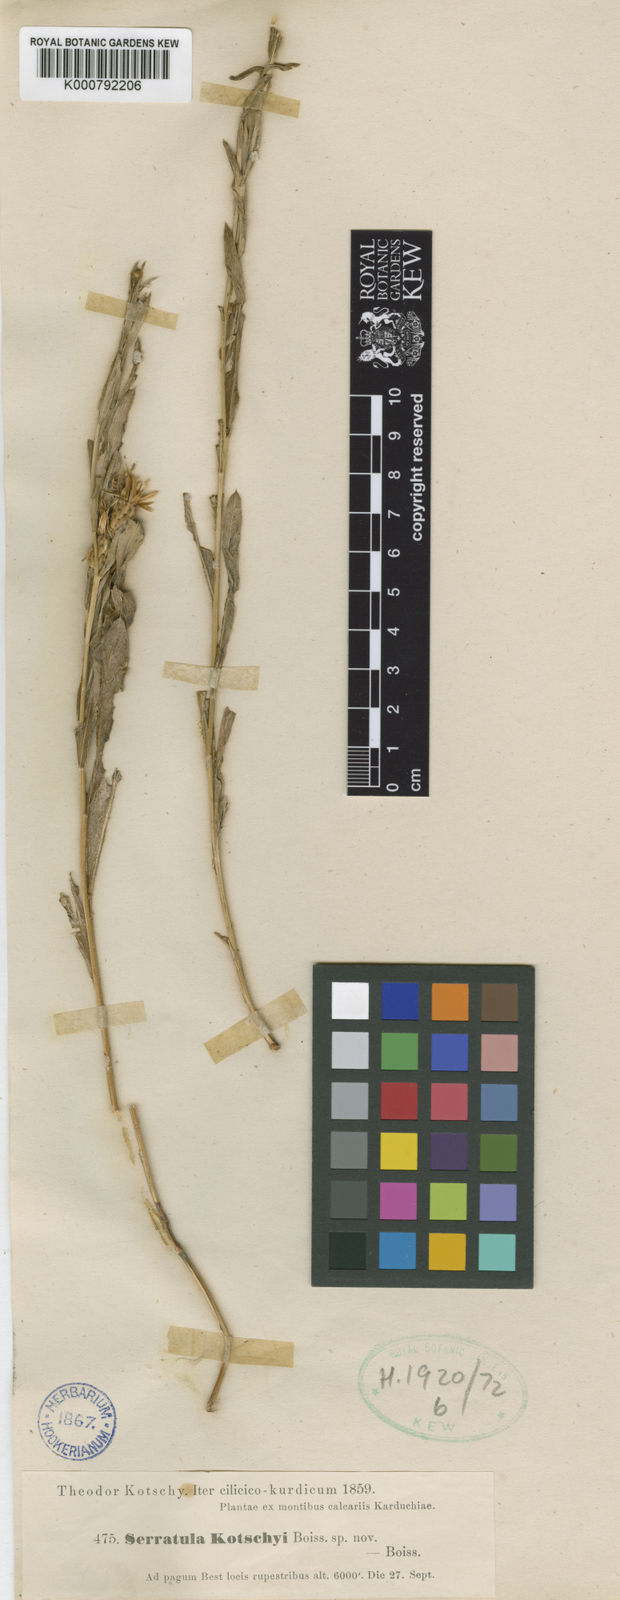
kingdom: Plantae
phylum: Tracheophyta
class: Magnoliopsida
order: Asterales
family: Asteraceae
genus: Klasea
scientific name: Klasea kotschyi
